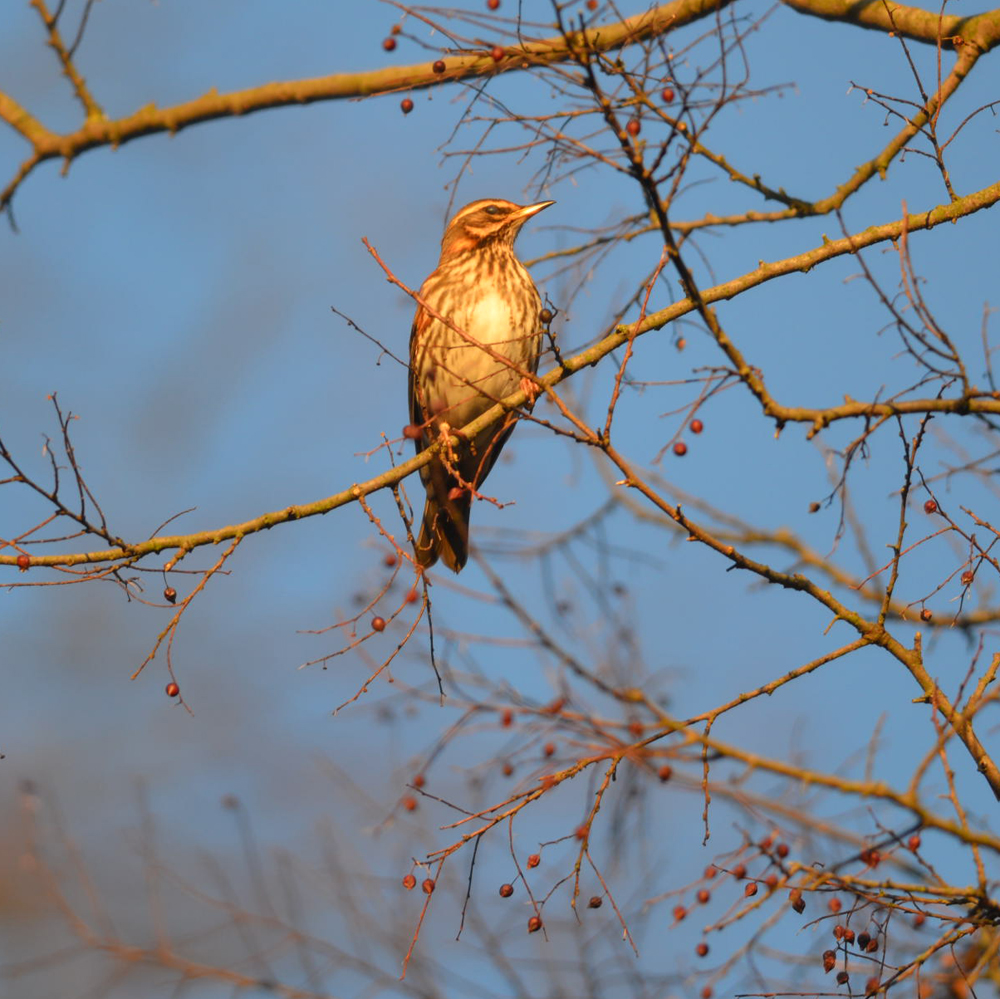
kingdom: Animalia
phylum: Chordata
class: Aves
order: Passeriformes
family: Turdidae
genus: Turdus
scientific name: Turdus iliacus
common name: Redwing
